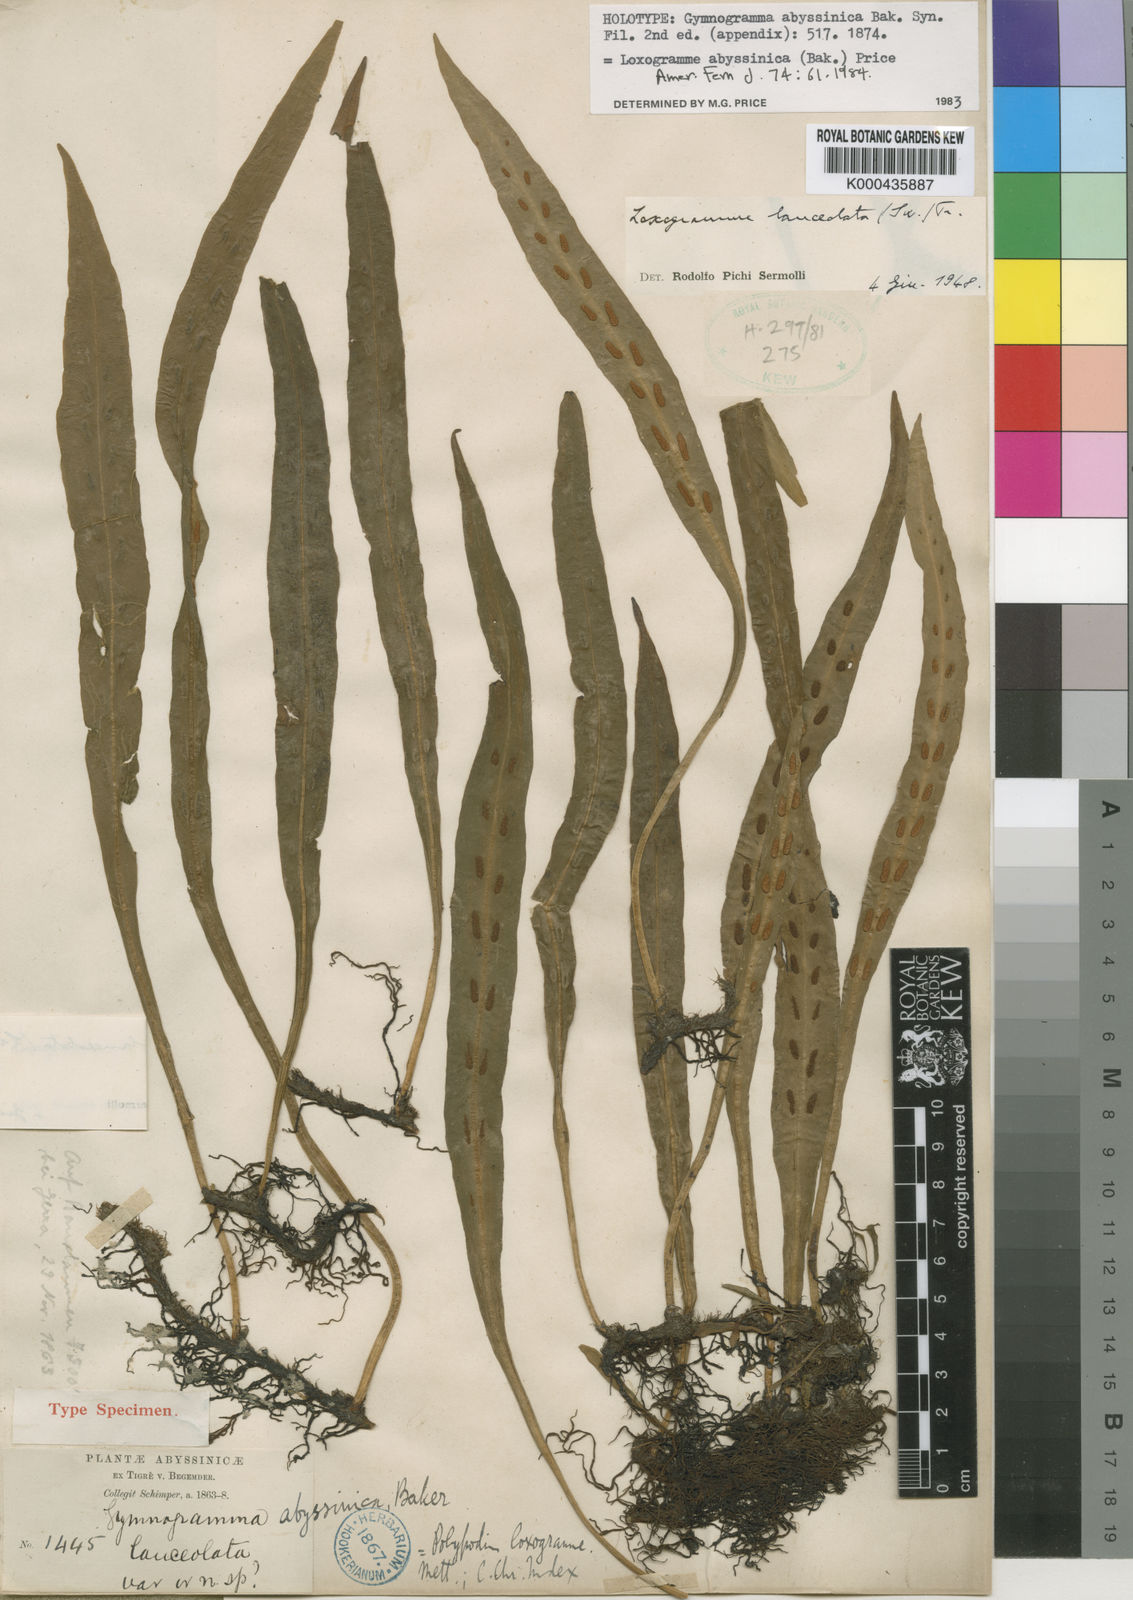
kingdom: Plantae
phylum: Tracheophyta
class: Polypodiopsida
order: Polypodiales
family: Polypodiaceae
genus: Loxogramme
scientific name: Loxogramme abyssinica
